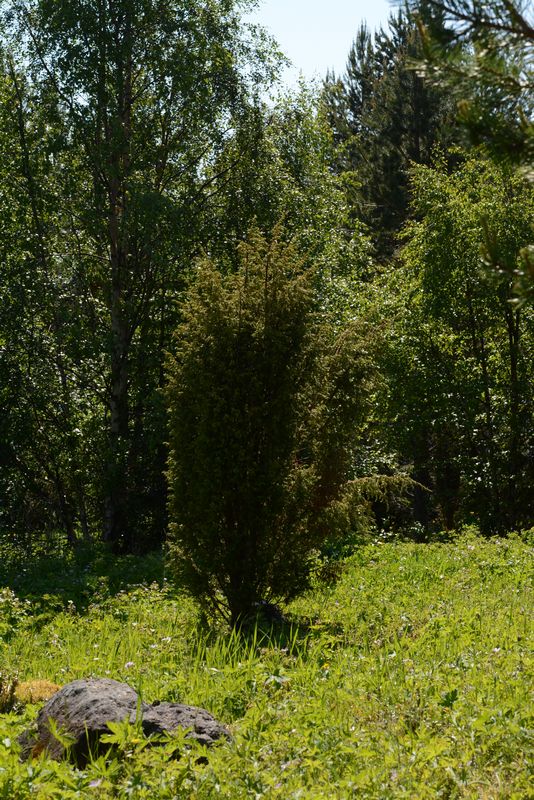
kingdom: Plantae
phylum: Tracheophyta
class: Pinopsida
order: Pinales
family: Cupressaceae
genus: Juniperus
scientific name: Juniperus communis
